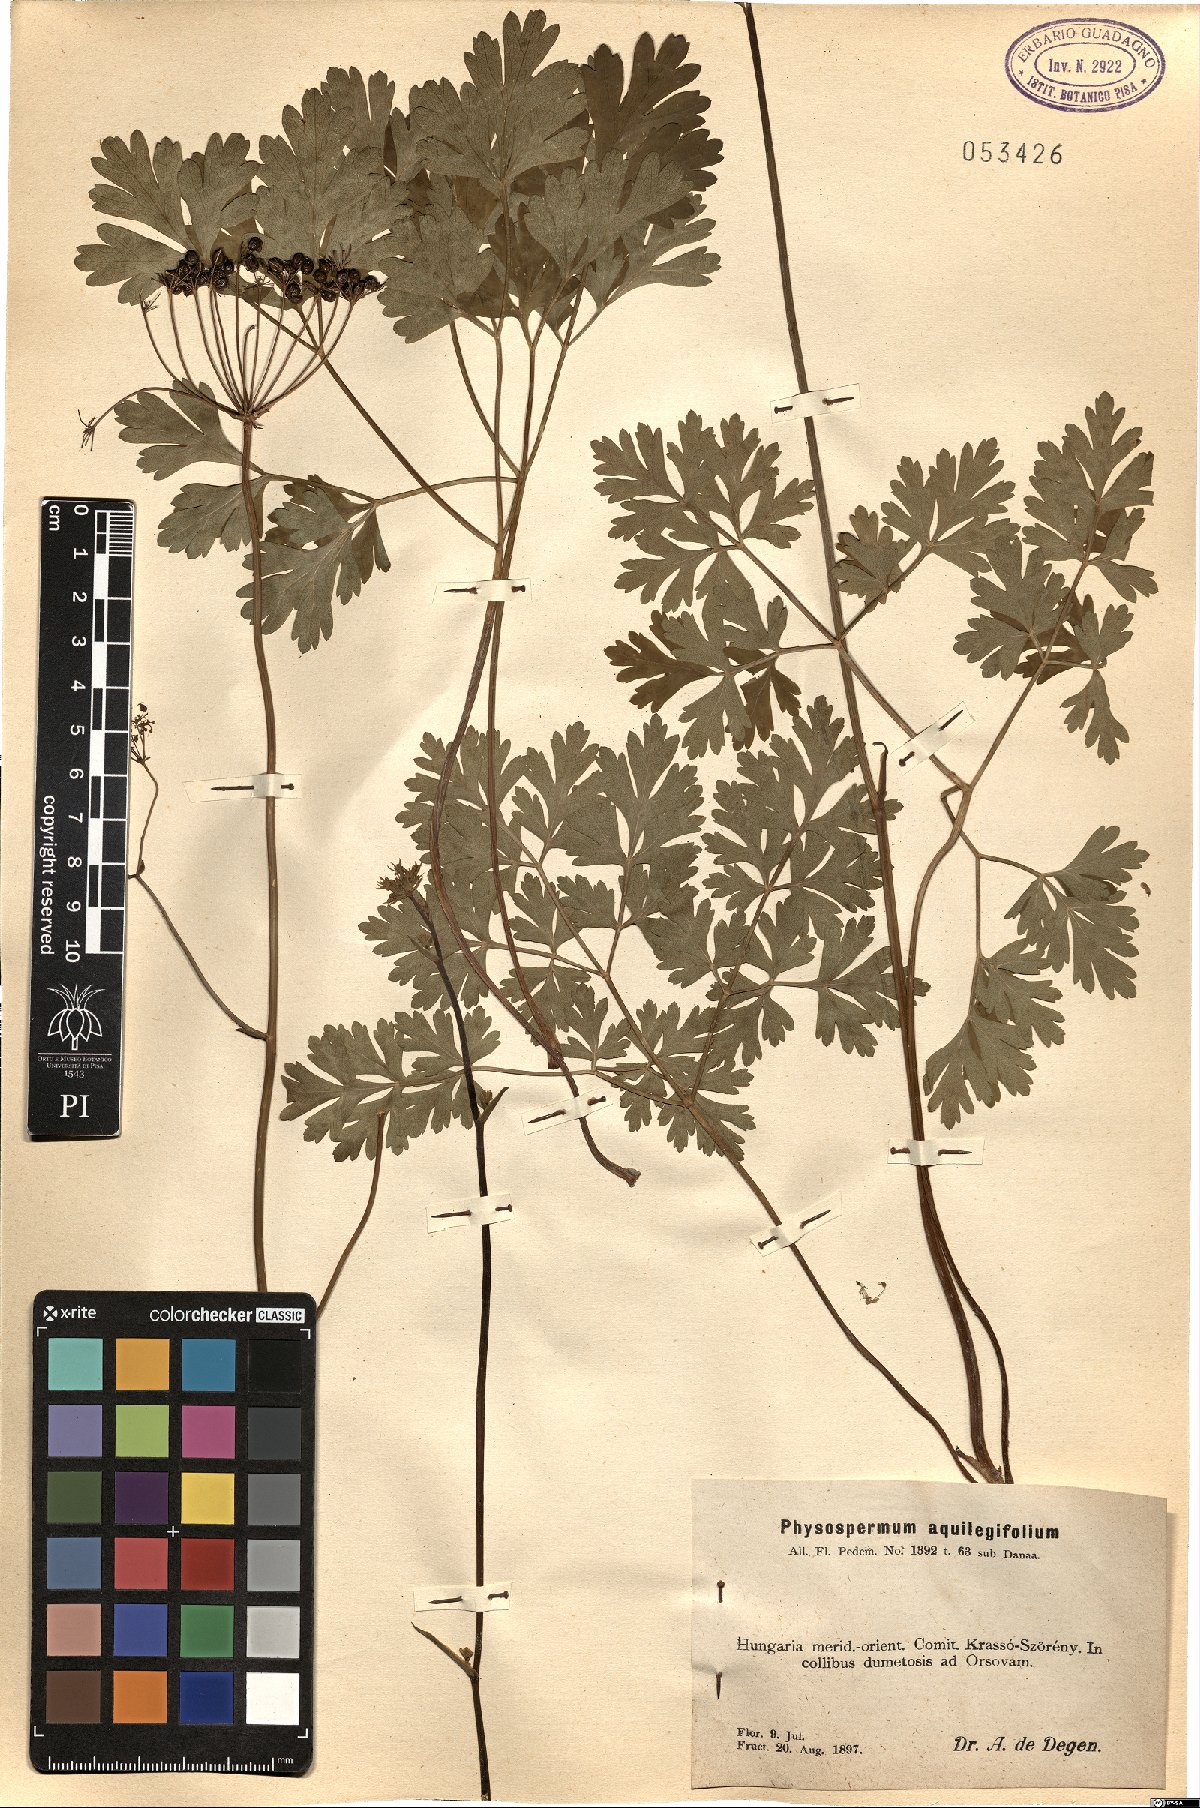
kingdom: Plantae
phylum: Tracheophyta
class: Magnoliopsida
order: Apiales
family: Apiaceae
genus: Physospermum
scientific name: Physospermum cornubiense
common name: Bladderseed
